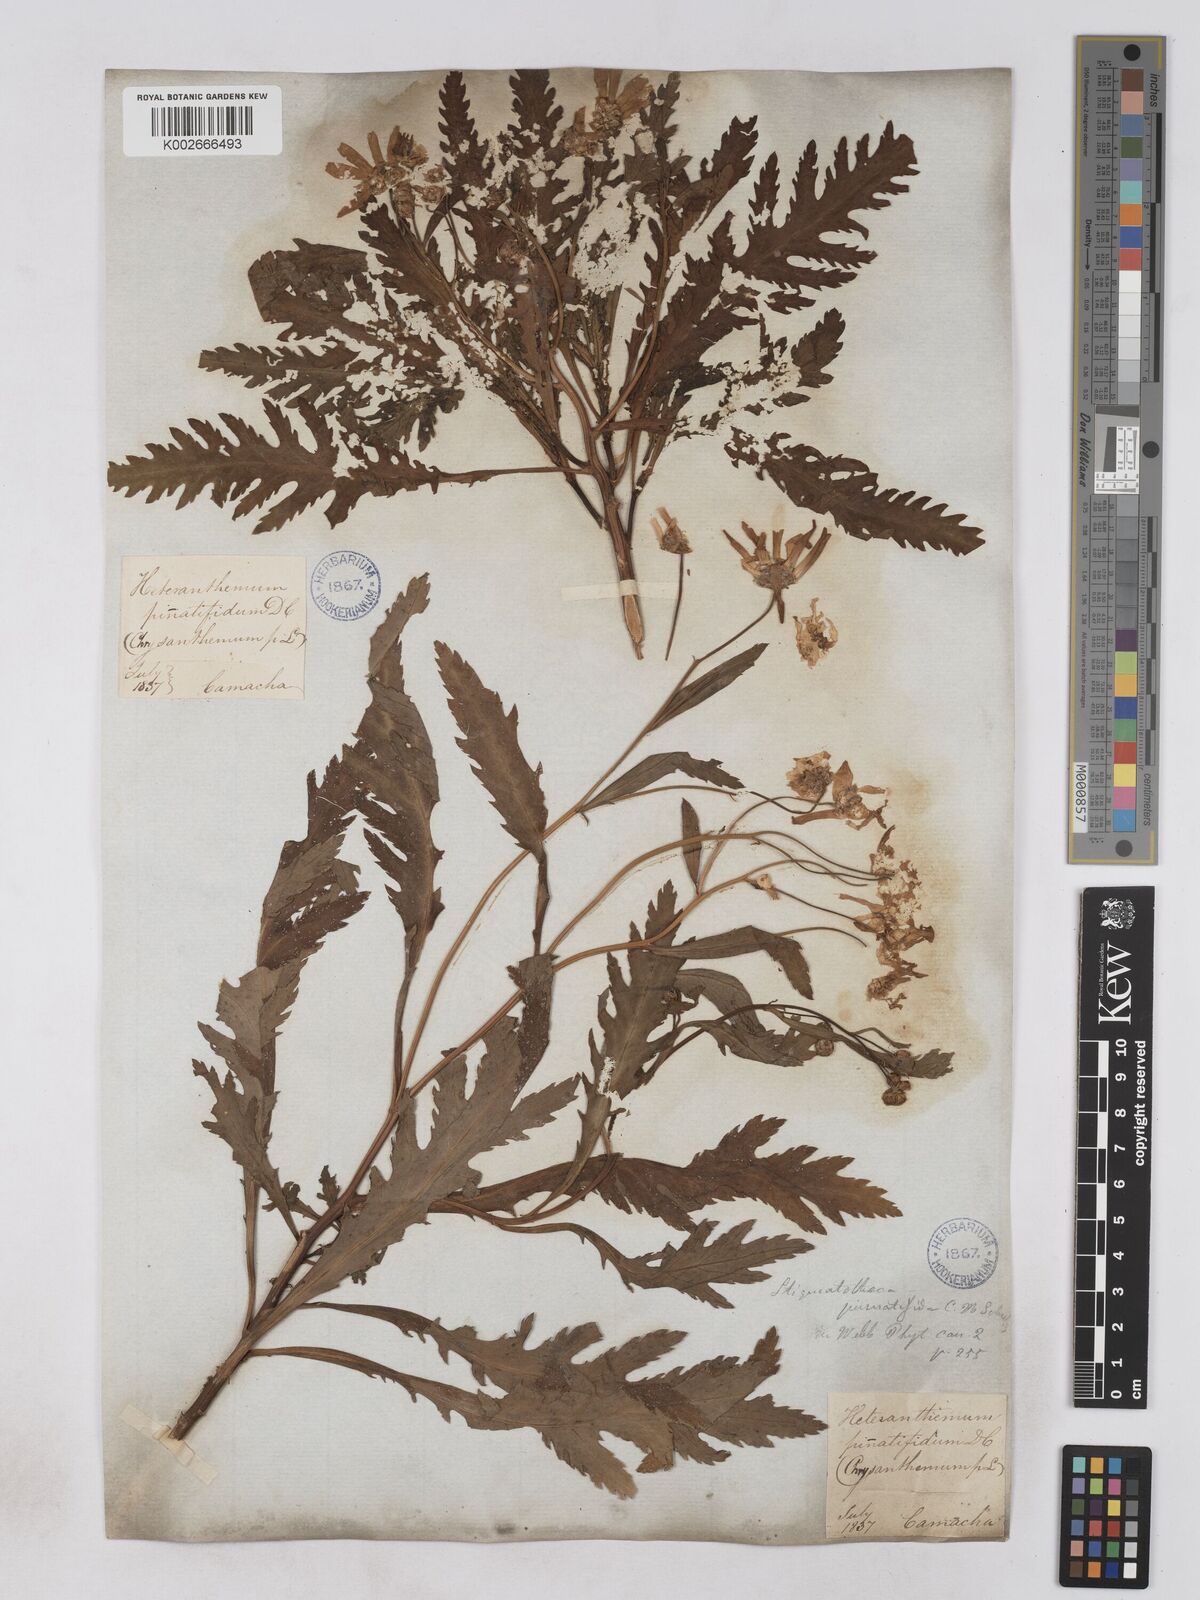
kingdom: Plantae
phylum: Tracheophyta
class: Magnoliopsida
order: Asterales
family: Asteraceae
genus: Argyranthemum
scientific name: Argyranthemum pinnatifidum
